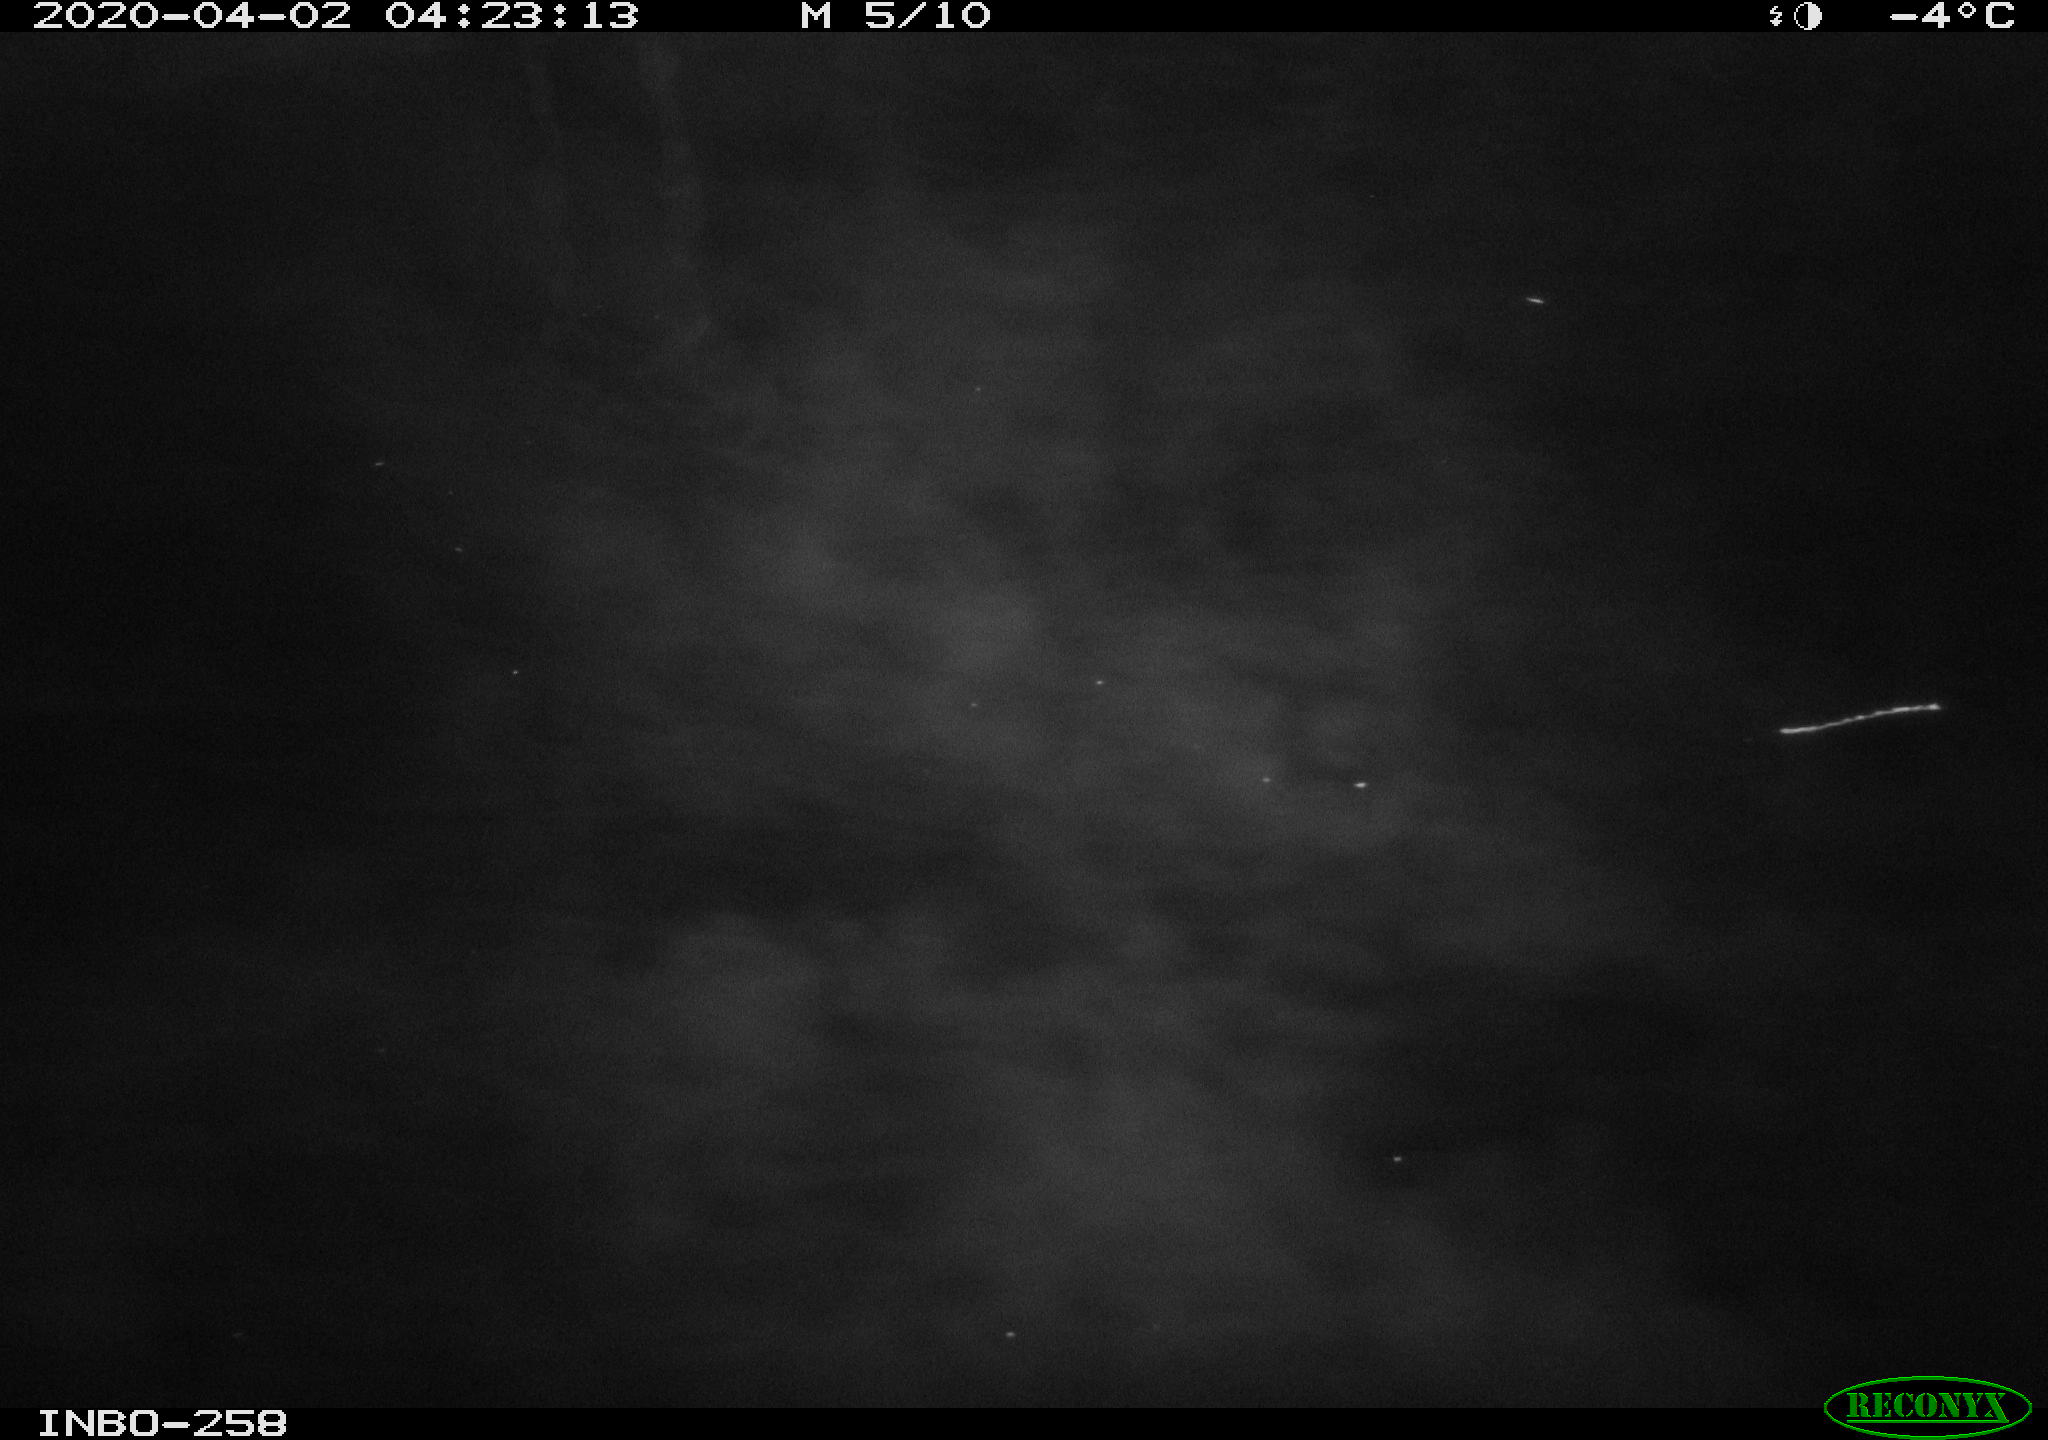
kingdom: Animalia
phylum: Chordata
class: Aves
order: Anseriformes
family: Anatidae
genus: Anas
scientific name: Anas platyrhynchos
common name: Mallard
